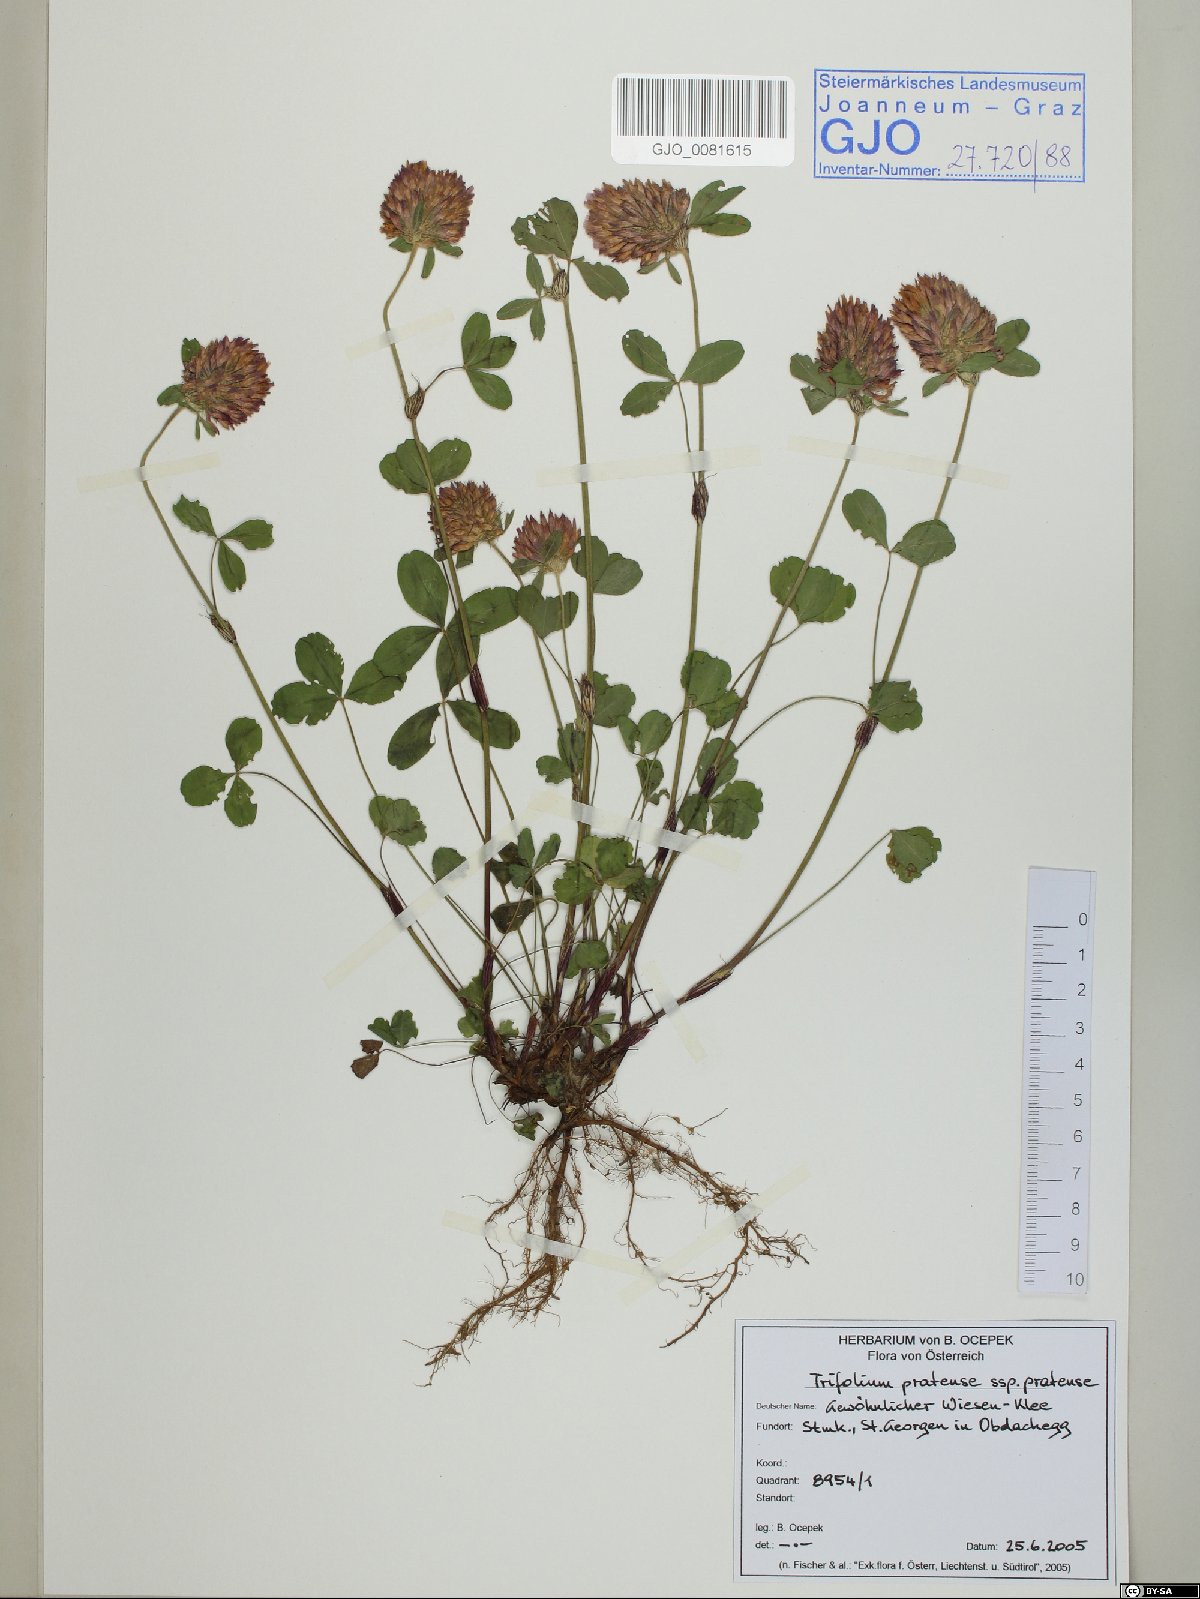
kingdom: Plantae
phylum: Tracheophyta
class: Magnoliopsida
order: Fabales
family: Fabaceae
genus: Trifolium
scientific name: Trifolium pratense
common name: Red clover
